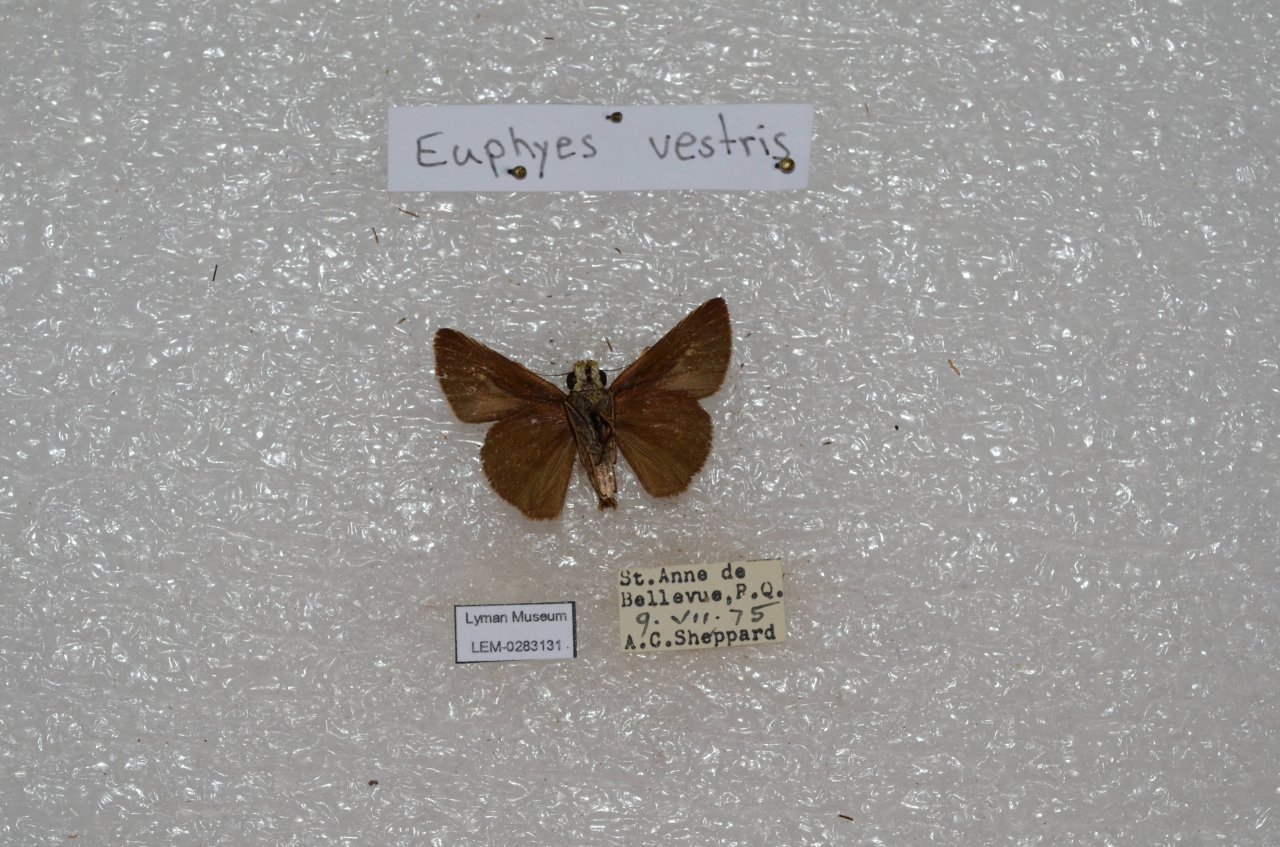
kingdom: Animalia
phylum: Arthropoda
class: Insecta
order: Lepidoptera
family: Hesperiidae
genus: Euphyes
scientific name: Euphyes vestris
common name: Dun Skipper
